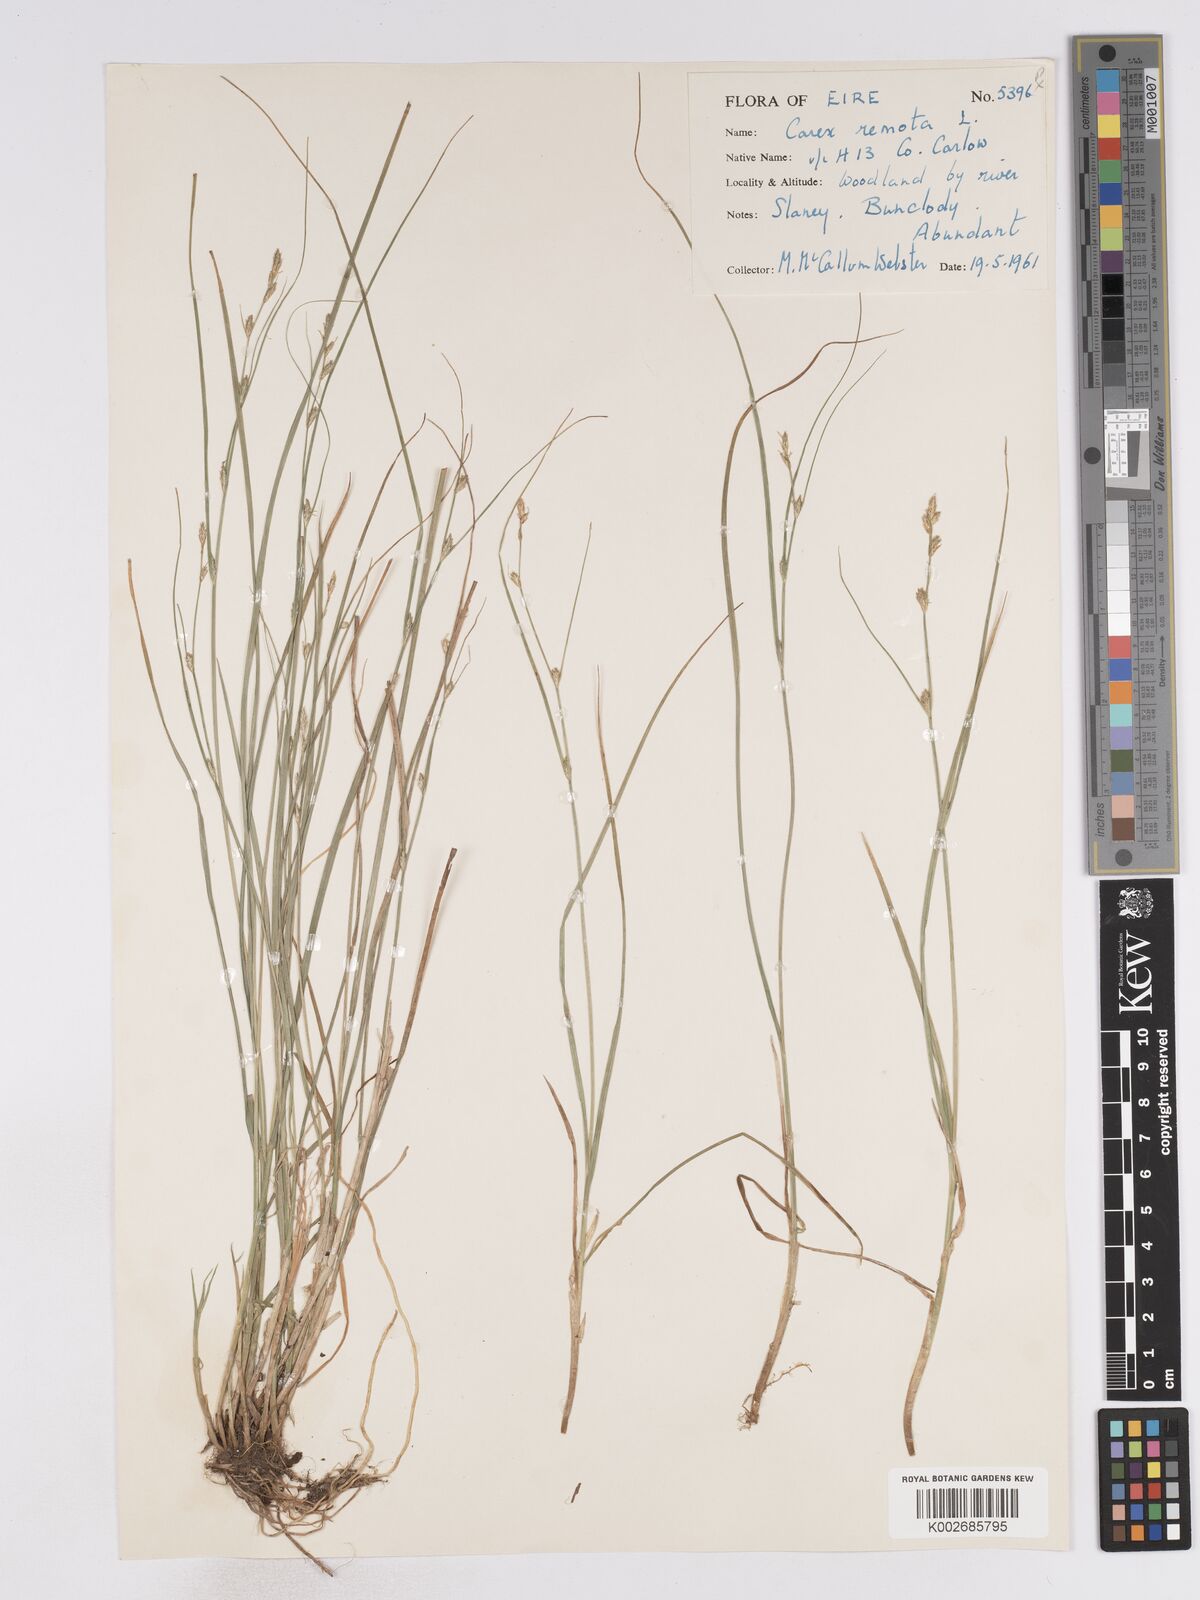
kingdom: Plantae
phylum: Tracheophyta
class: Liliopsida
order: Poales
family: Cyperaceae
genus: Carex
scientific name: Carex remota
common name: Remote sedge
